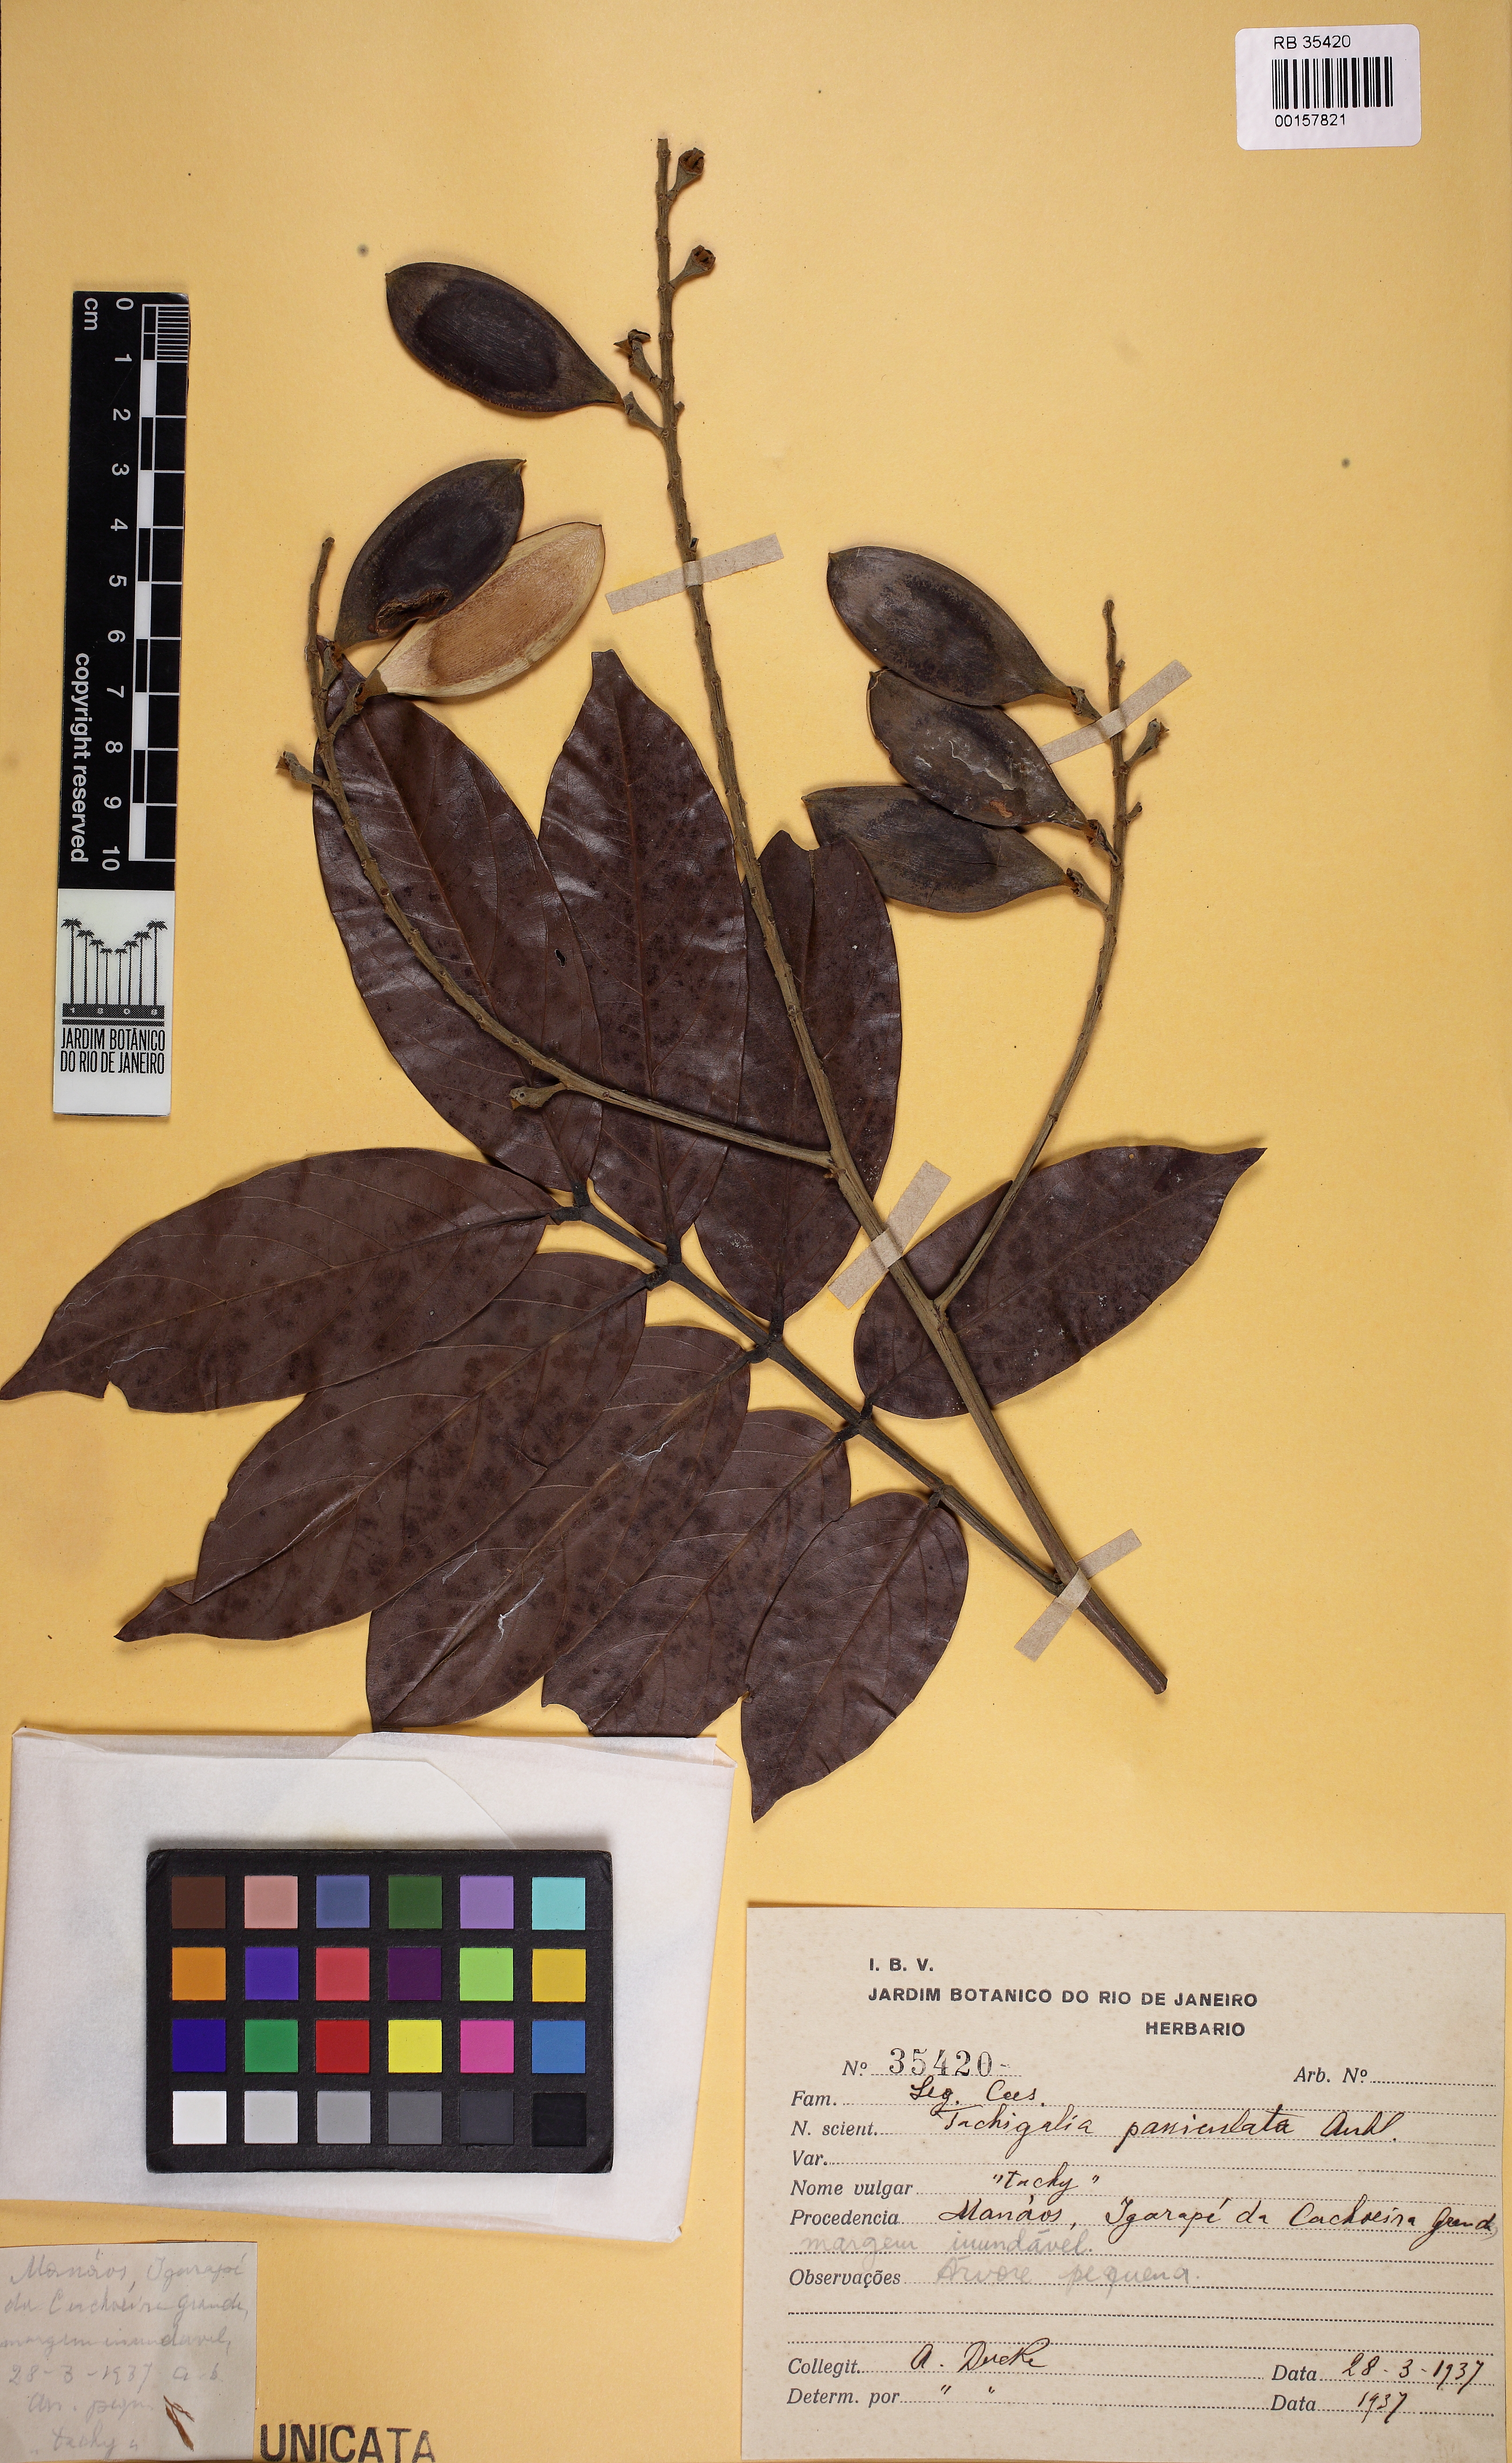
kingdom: Plantae
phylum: Tracheophyta
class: Magnoliopsida
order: Fabales
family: Fabaceae
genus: Tachigali
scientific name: Tachigali paniculata
